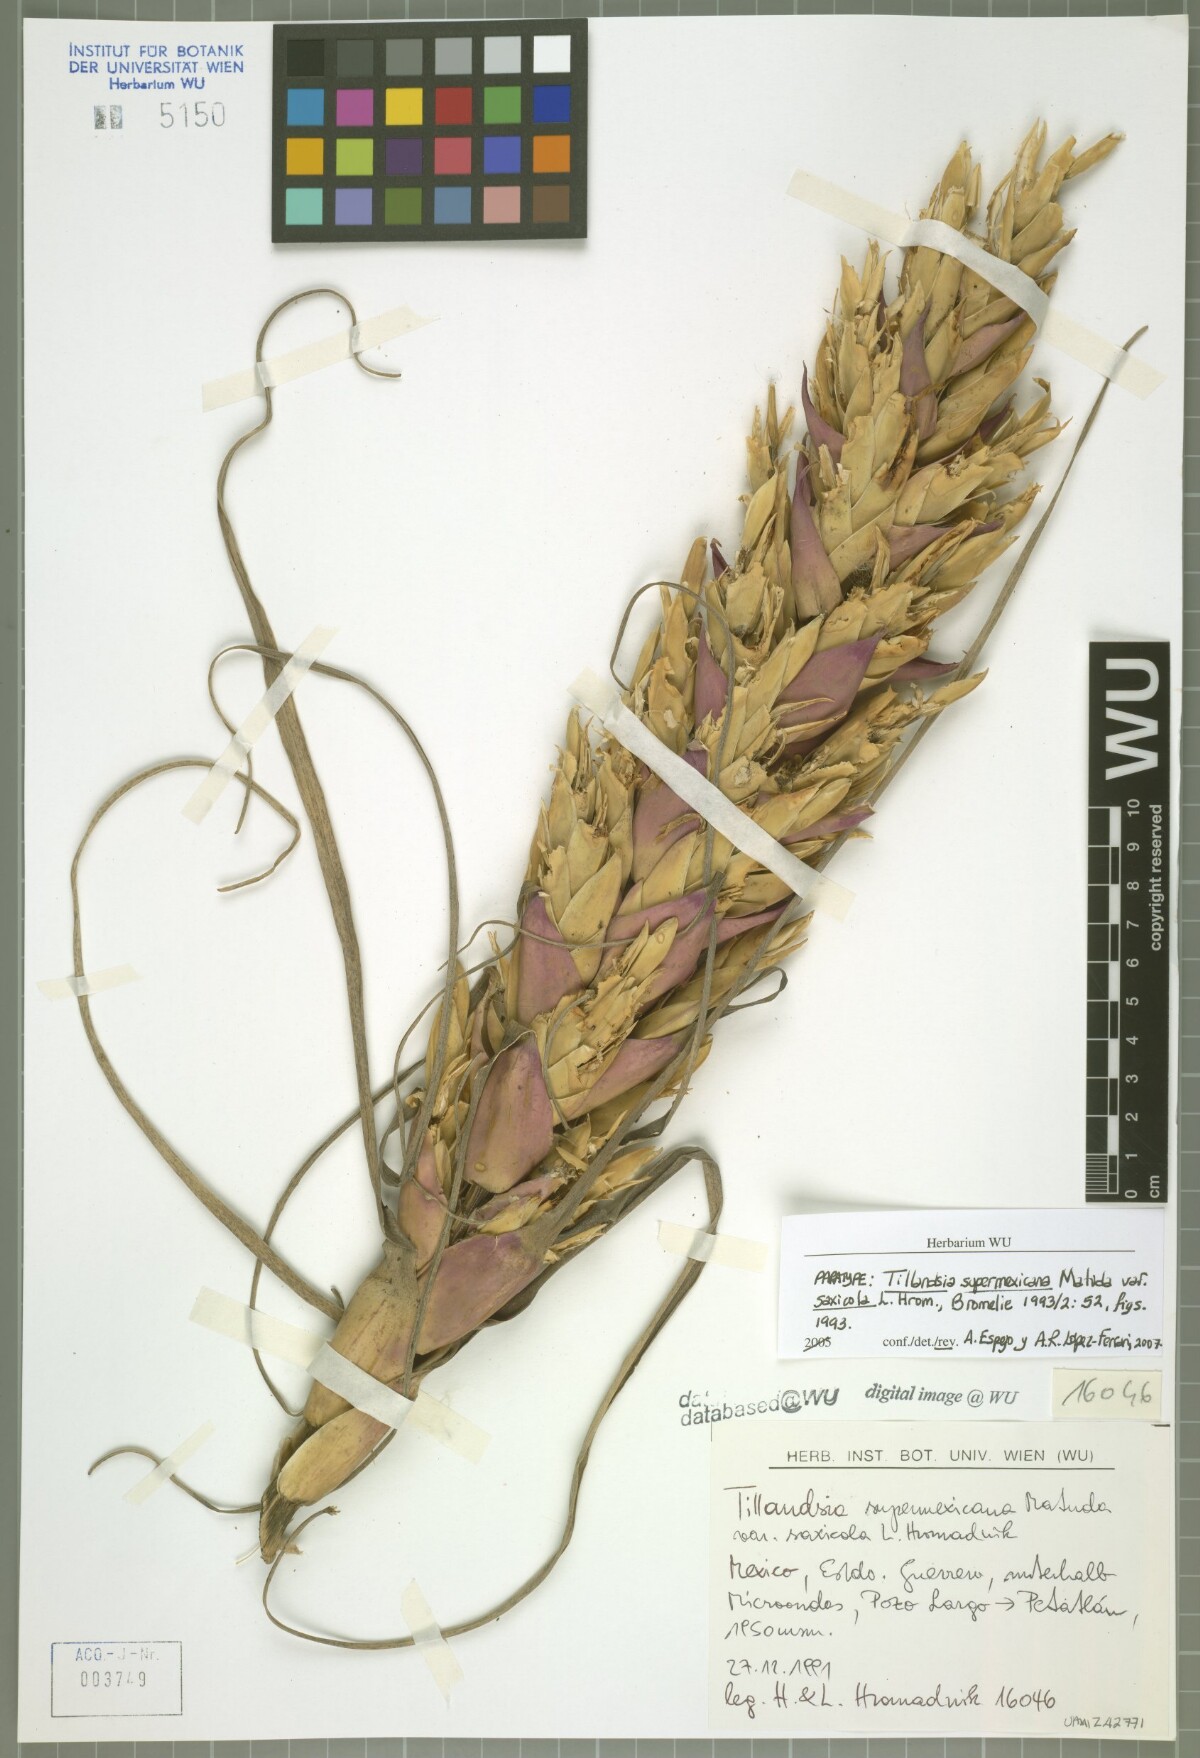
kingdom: Plantae
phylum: Tracheophyta
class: Liliopsida
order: Poales
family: Bromeliaceae
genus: Tillandsia
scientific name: Tillandsia supermexicana
